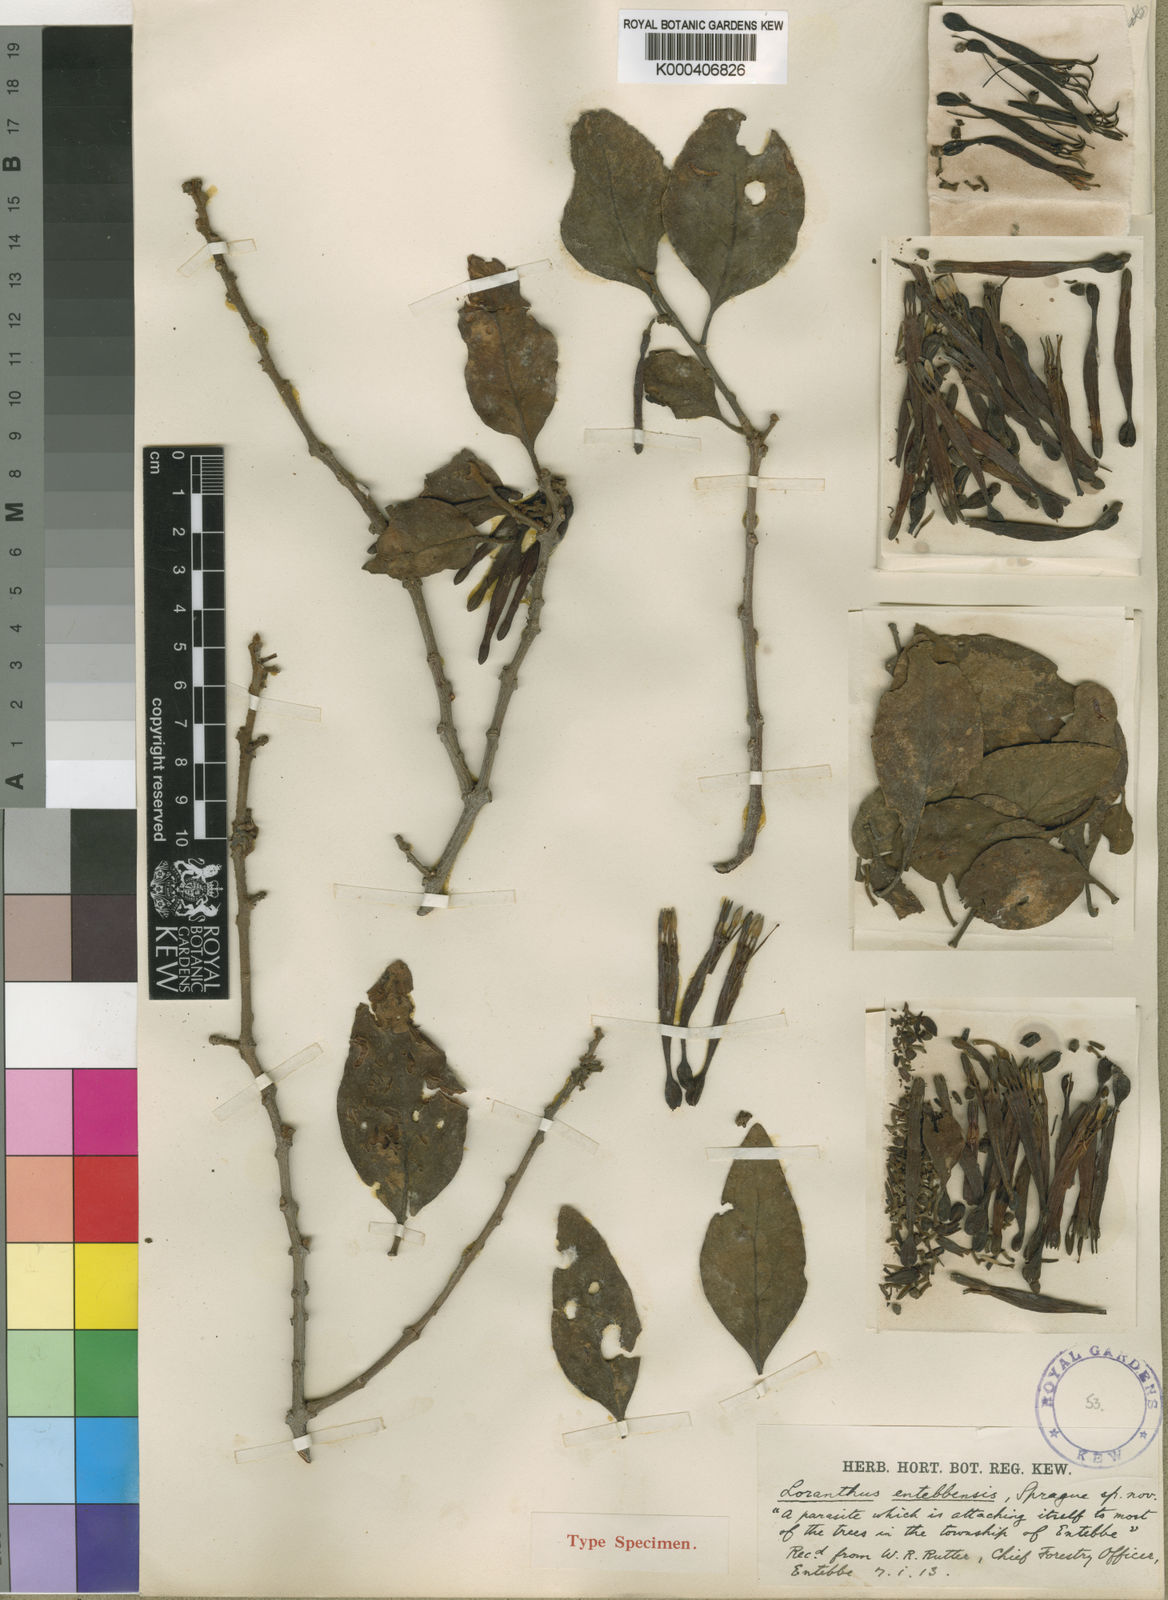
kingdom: Plantae
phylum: Tracheophyta
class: Magnoliopsida
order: Santalales
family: Loranthaceae
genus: Agelanthus
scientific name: Agelanthus entebbensis
